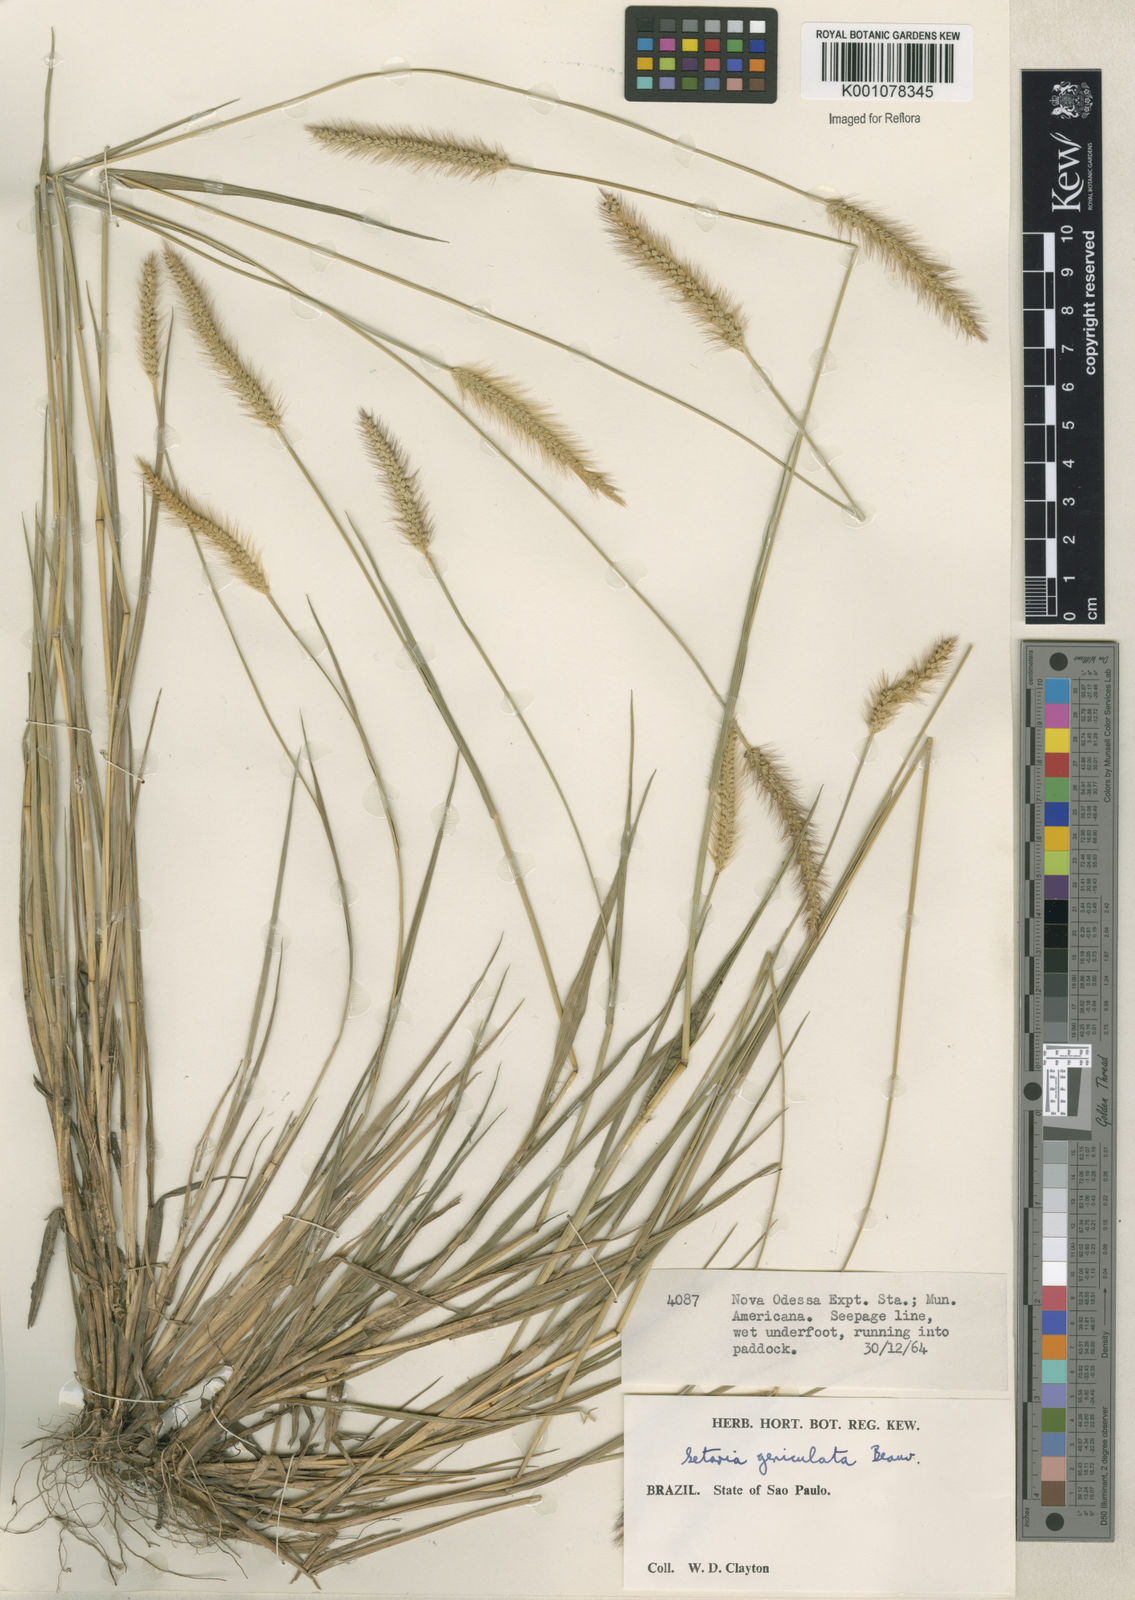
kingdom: Plantae
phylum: Tracheophyta
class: Liliopsida
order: Poales
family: Poaceae
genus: Setaria
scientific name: Setaria parviflora
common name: Knotroot bristle-grass
